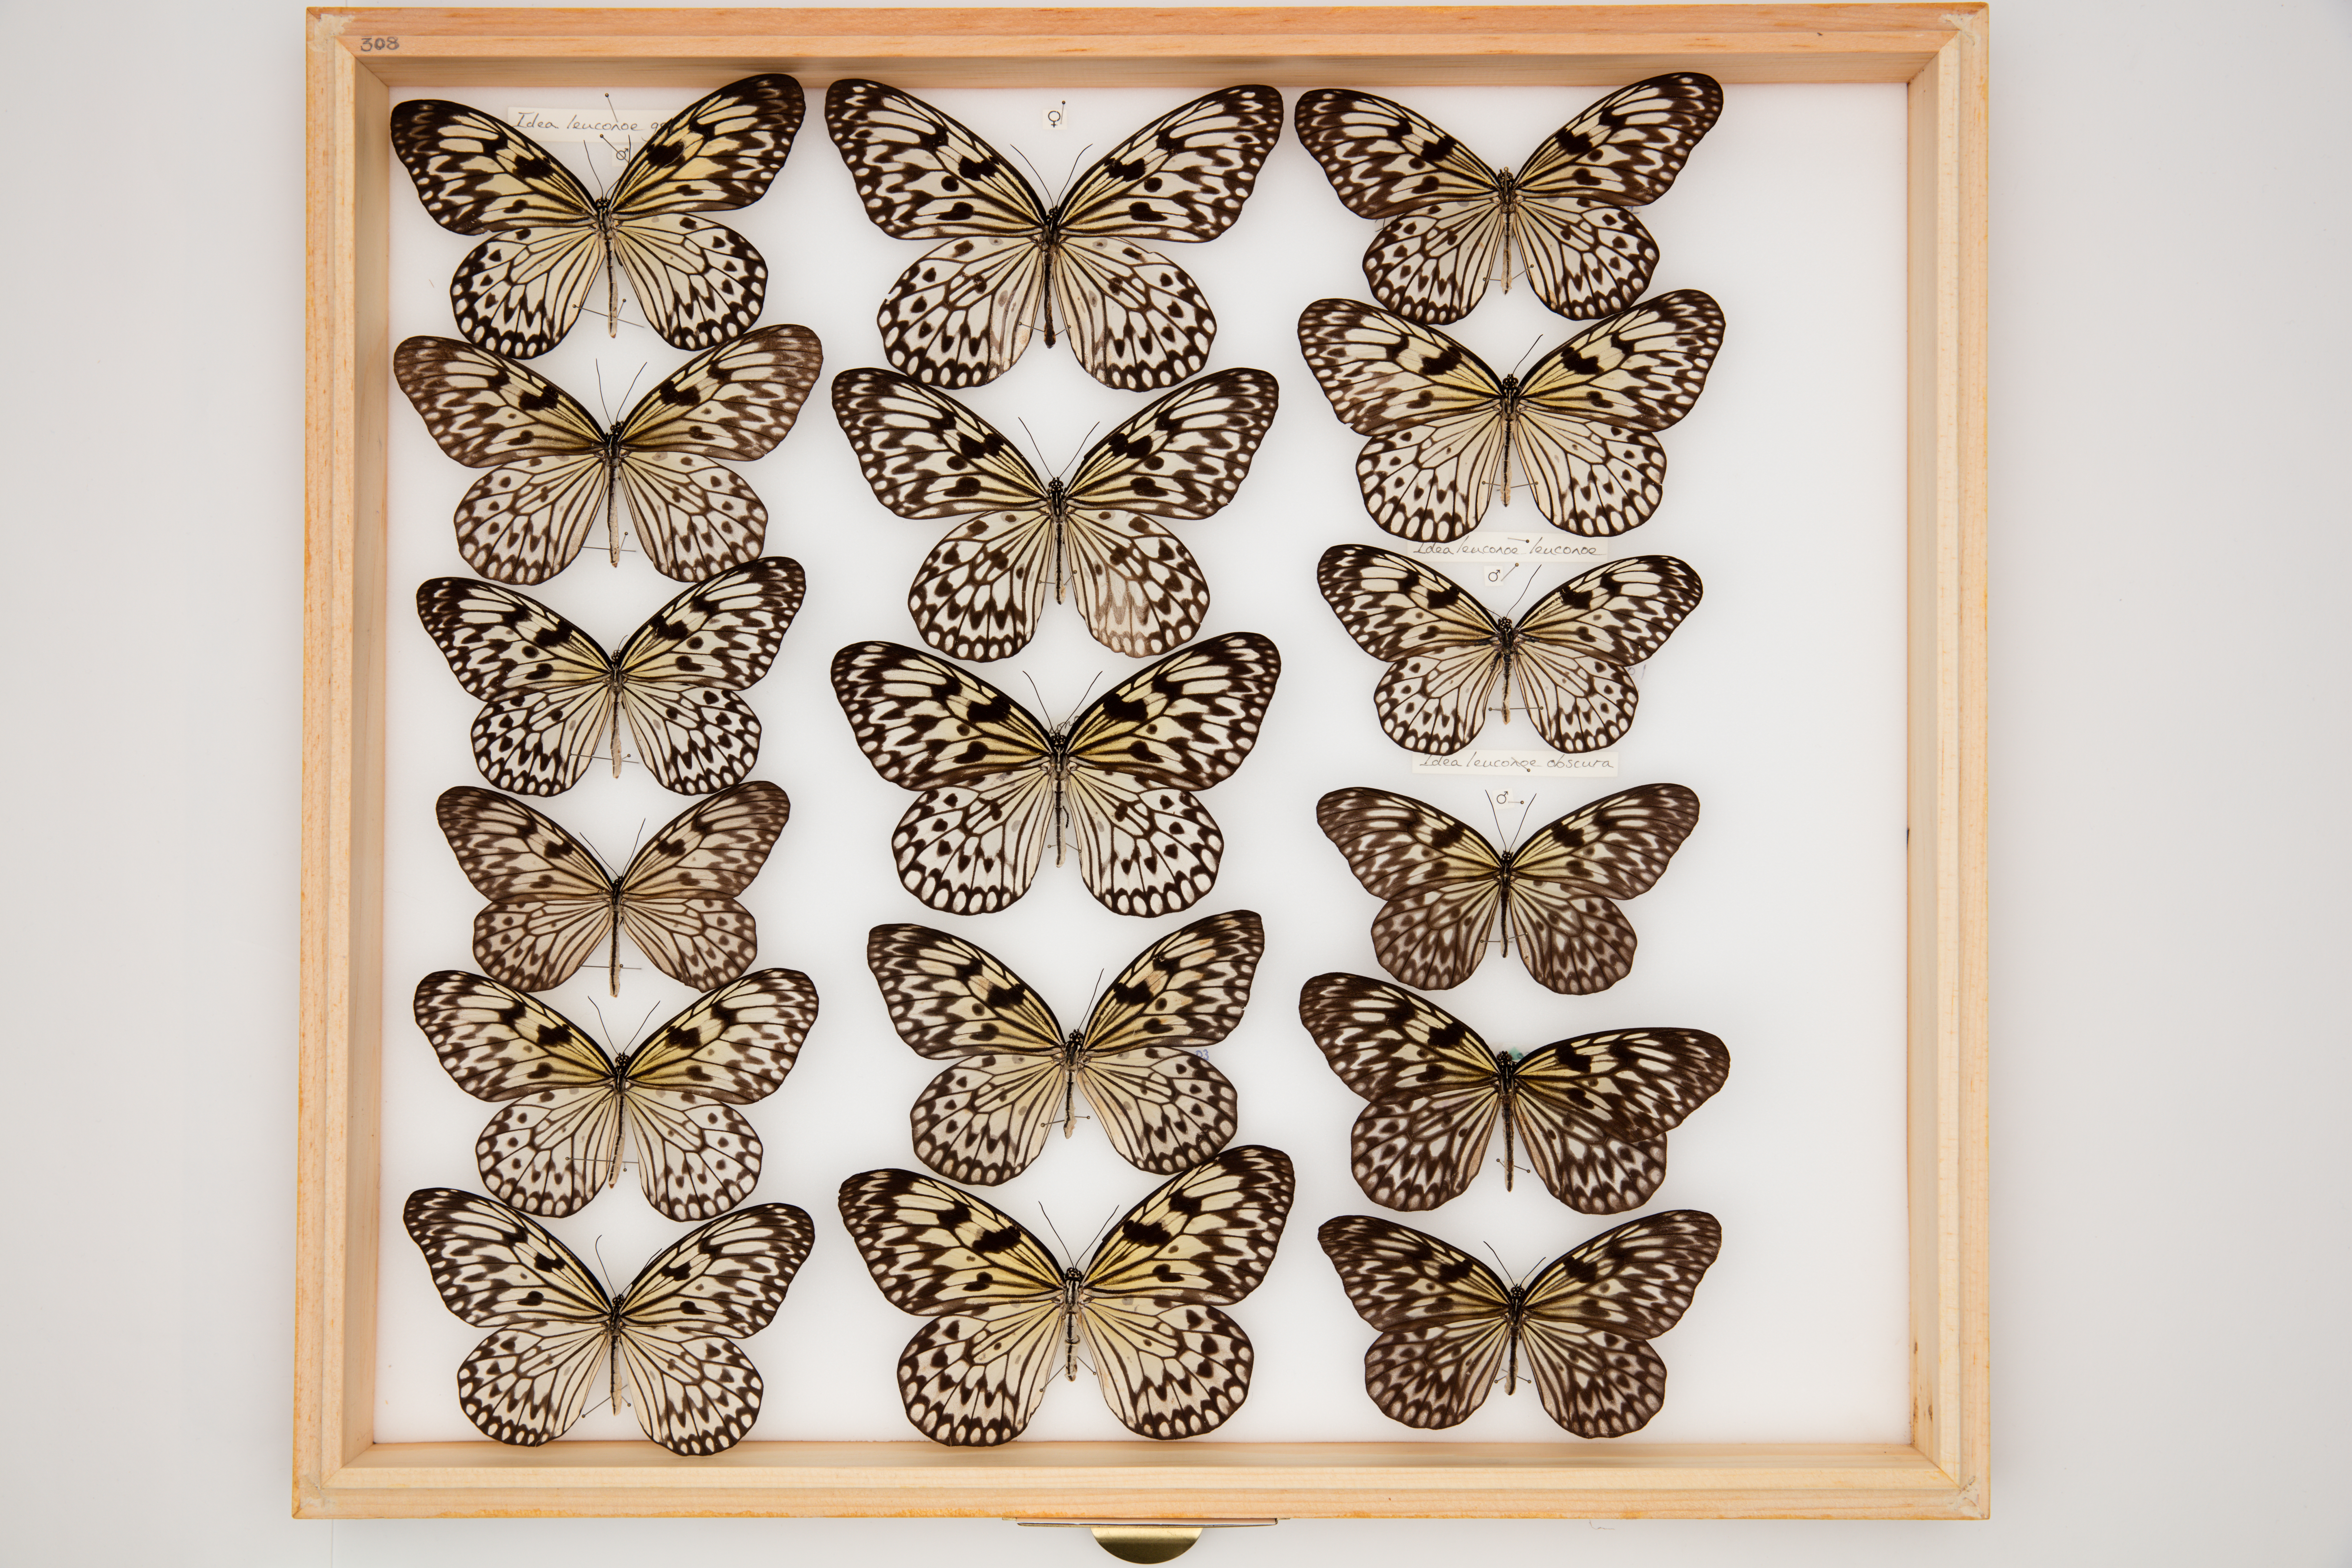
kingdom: Animalia
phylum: Arthropoda
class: Insecta
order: Lepidoptera
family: Nymphalidae
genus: Idea
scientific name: Idea leuconoe
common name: Rice paper butterfly
